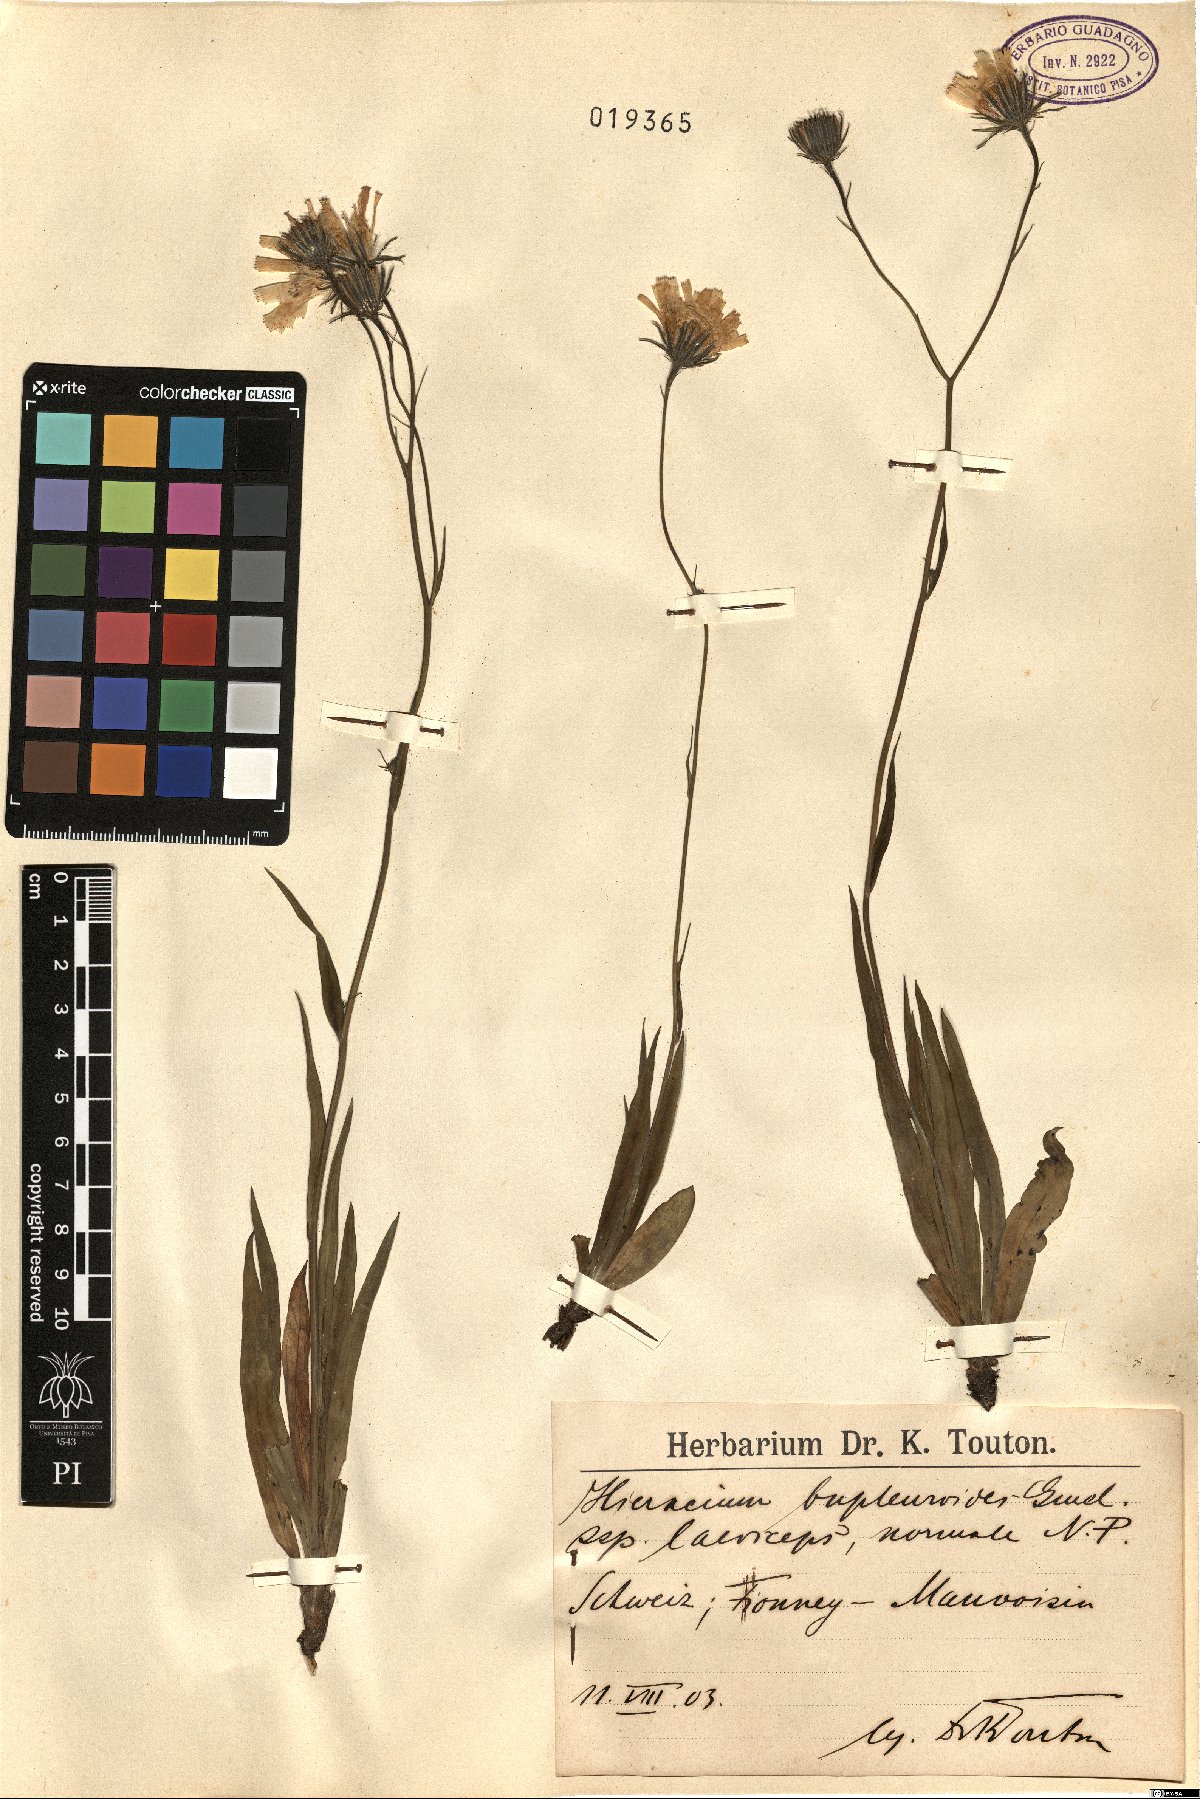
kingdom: Plantae
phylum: Tracheophyta
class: Magnoliopsida
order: Asterales
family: Asteraceae
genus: Hieracium
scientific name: Hieracium bupleuroides
